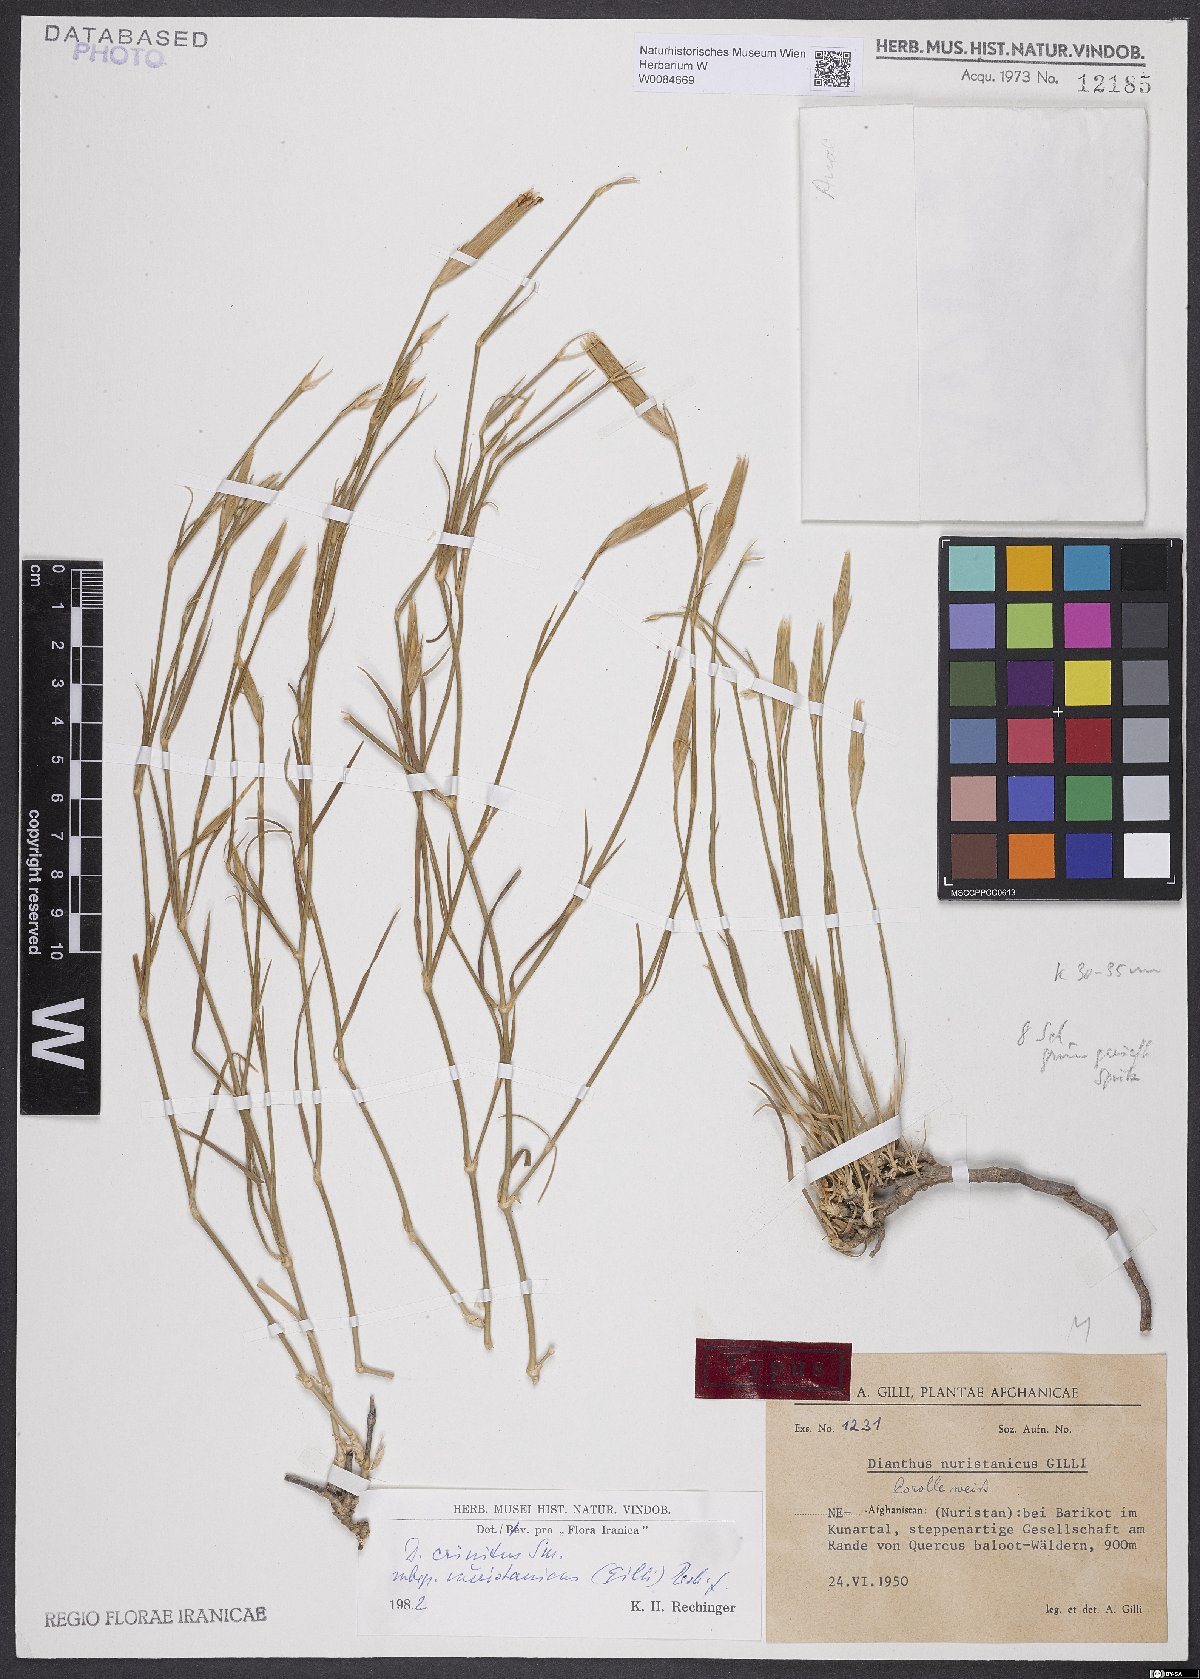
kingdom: Plantae
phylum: Tracheophyta
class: Magnoliopsida
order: Caryophyllales
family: Caryophyllaceae
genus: Dianthus
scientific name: Dianthus crinitus
